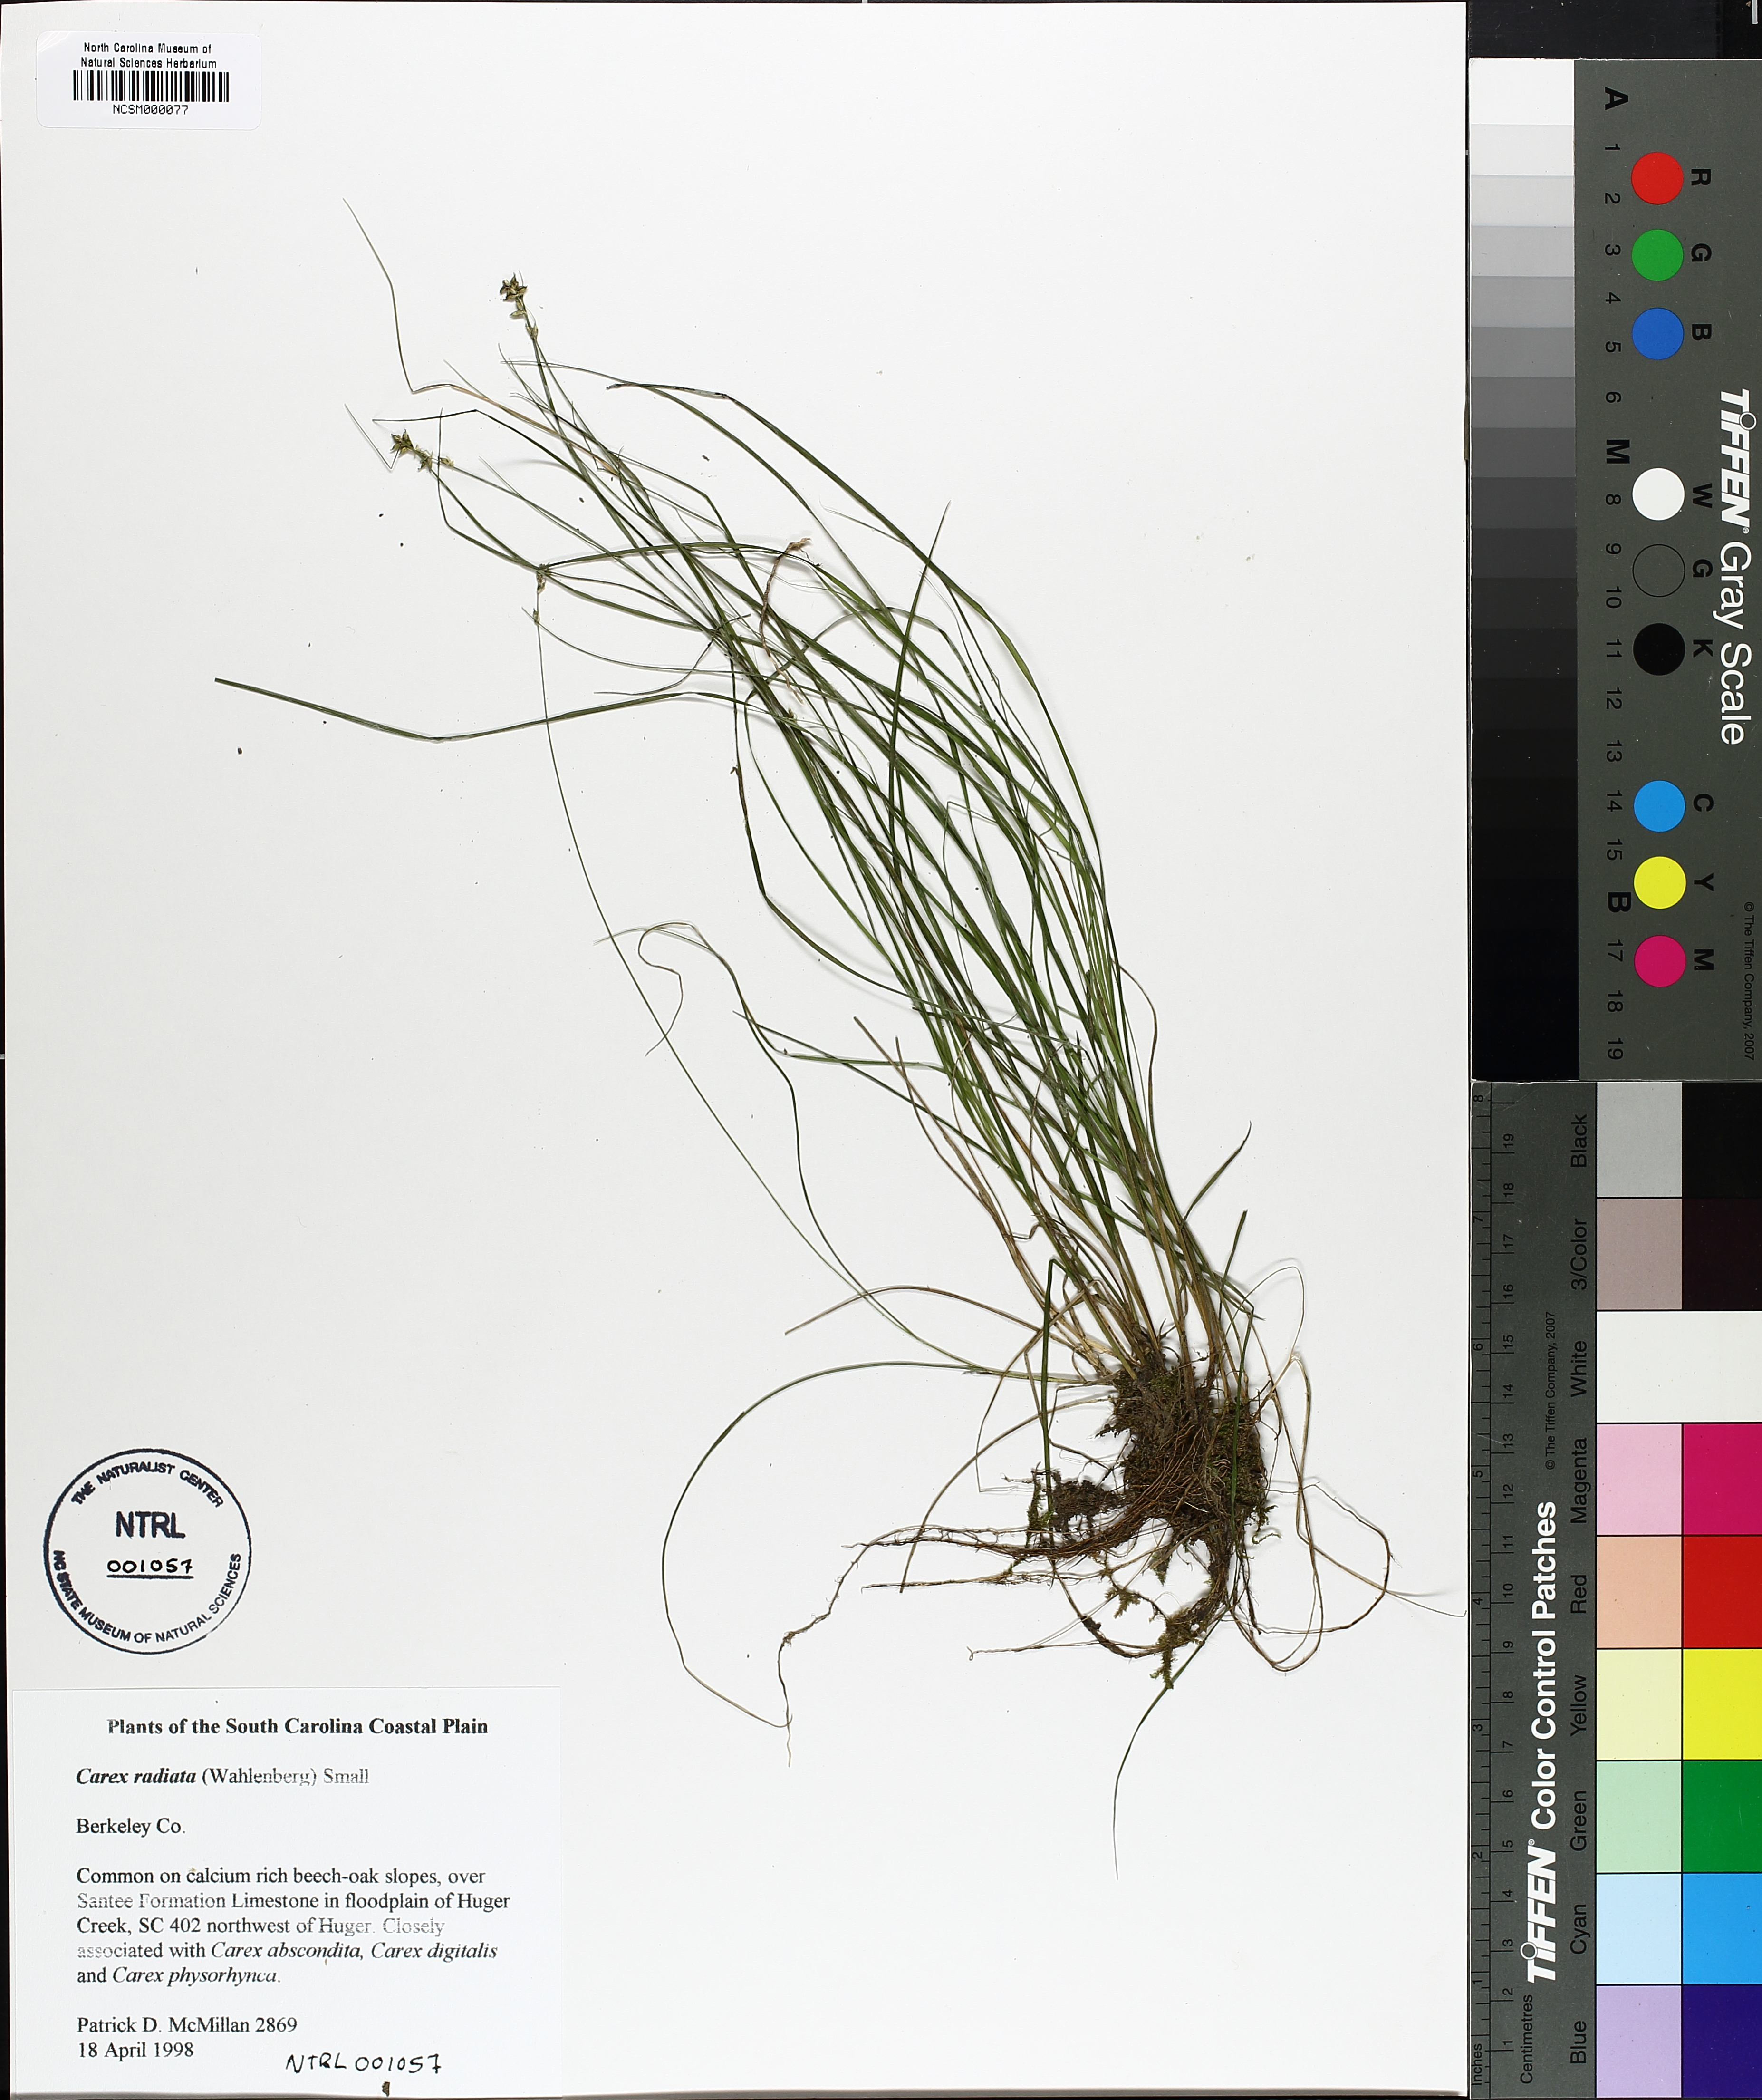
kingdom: Plantae
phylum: Tracheophyta
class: Liliopsida
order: Poales
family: Cyperaceae
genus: Carex
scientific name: Carex radiata
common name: Eastern star sedge
